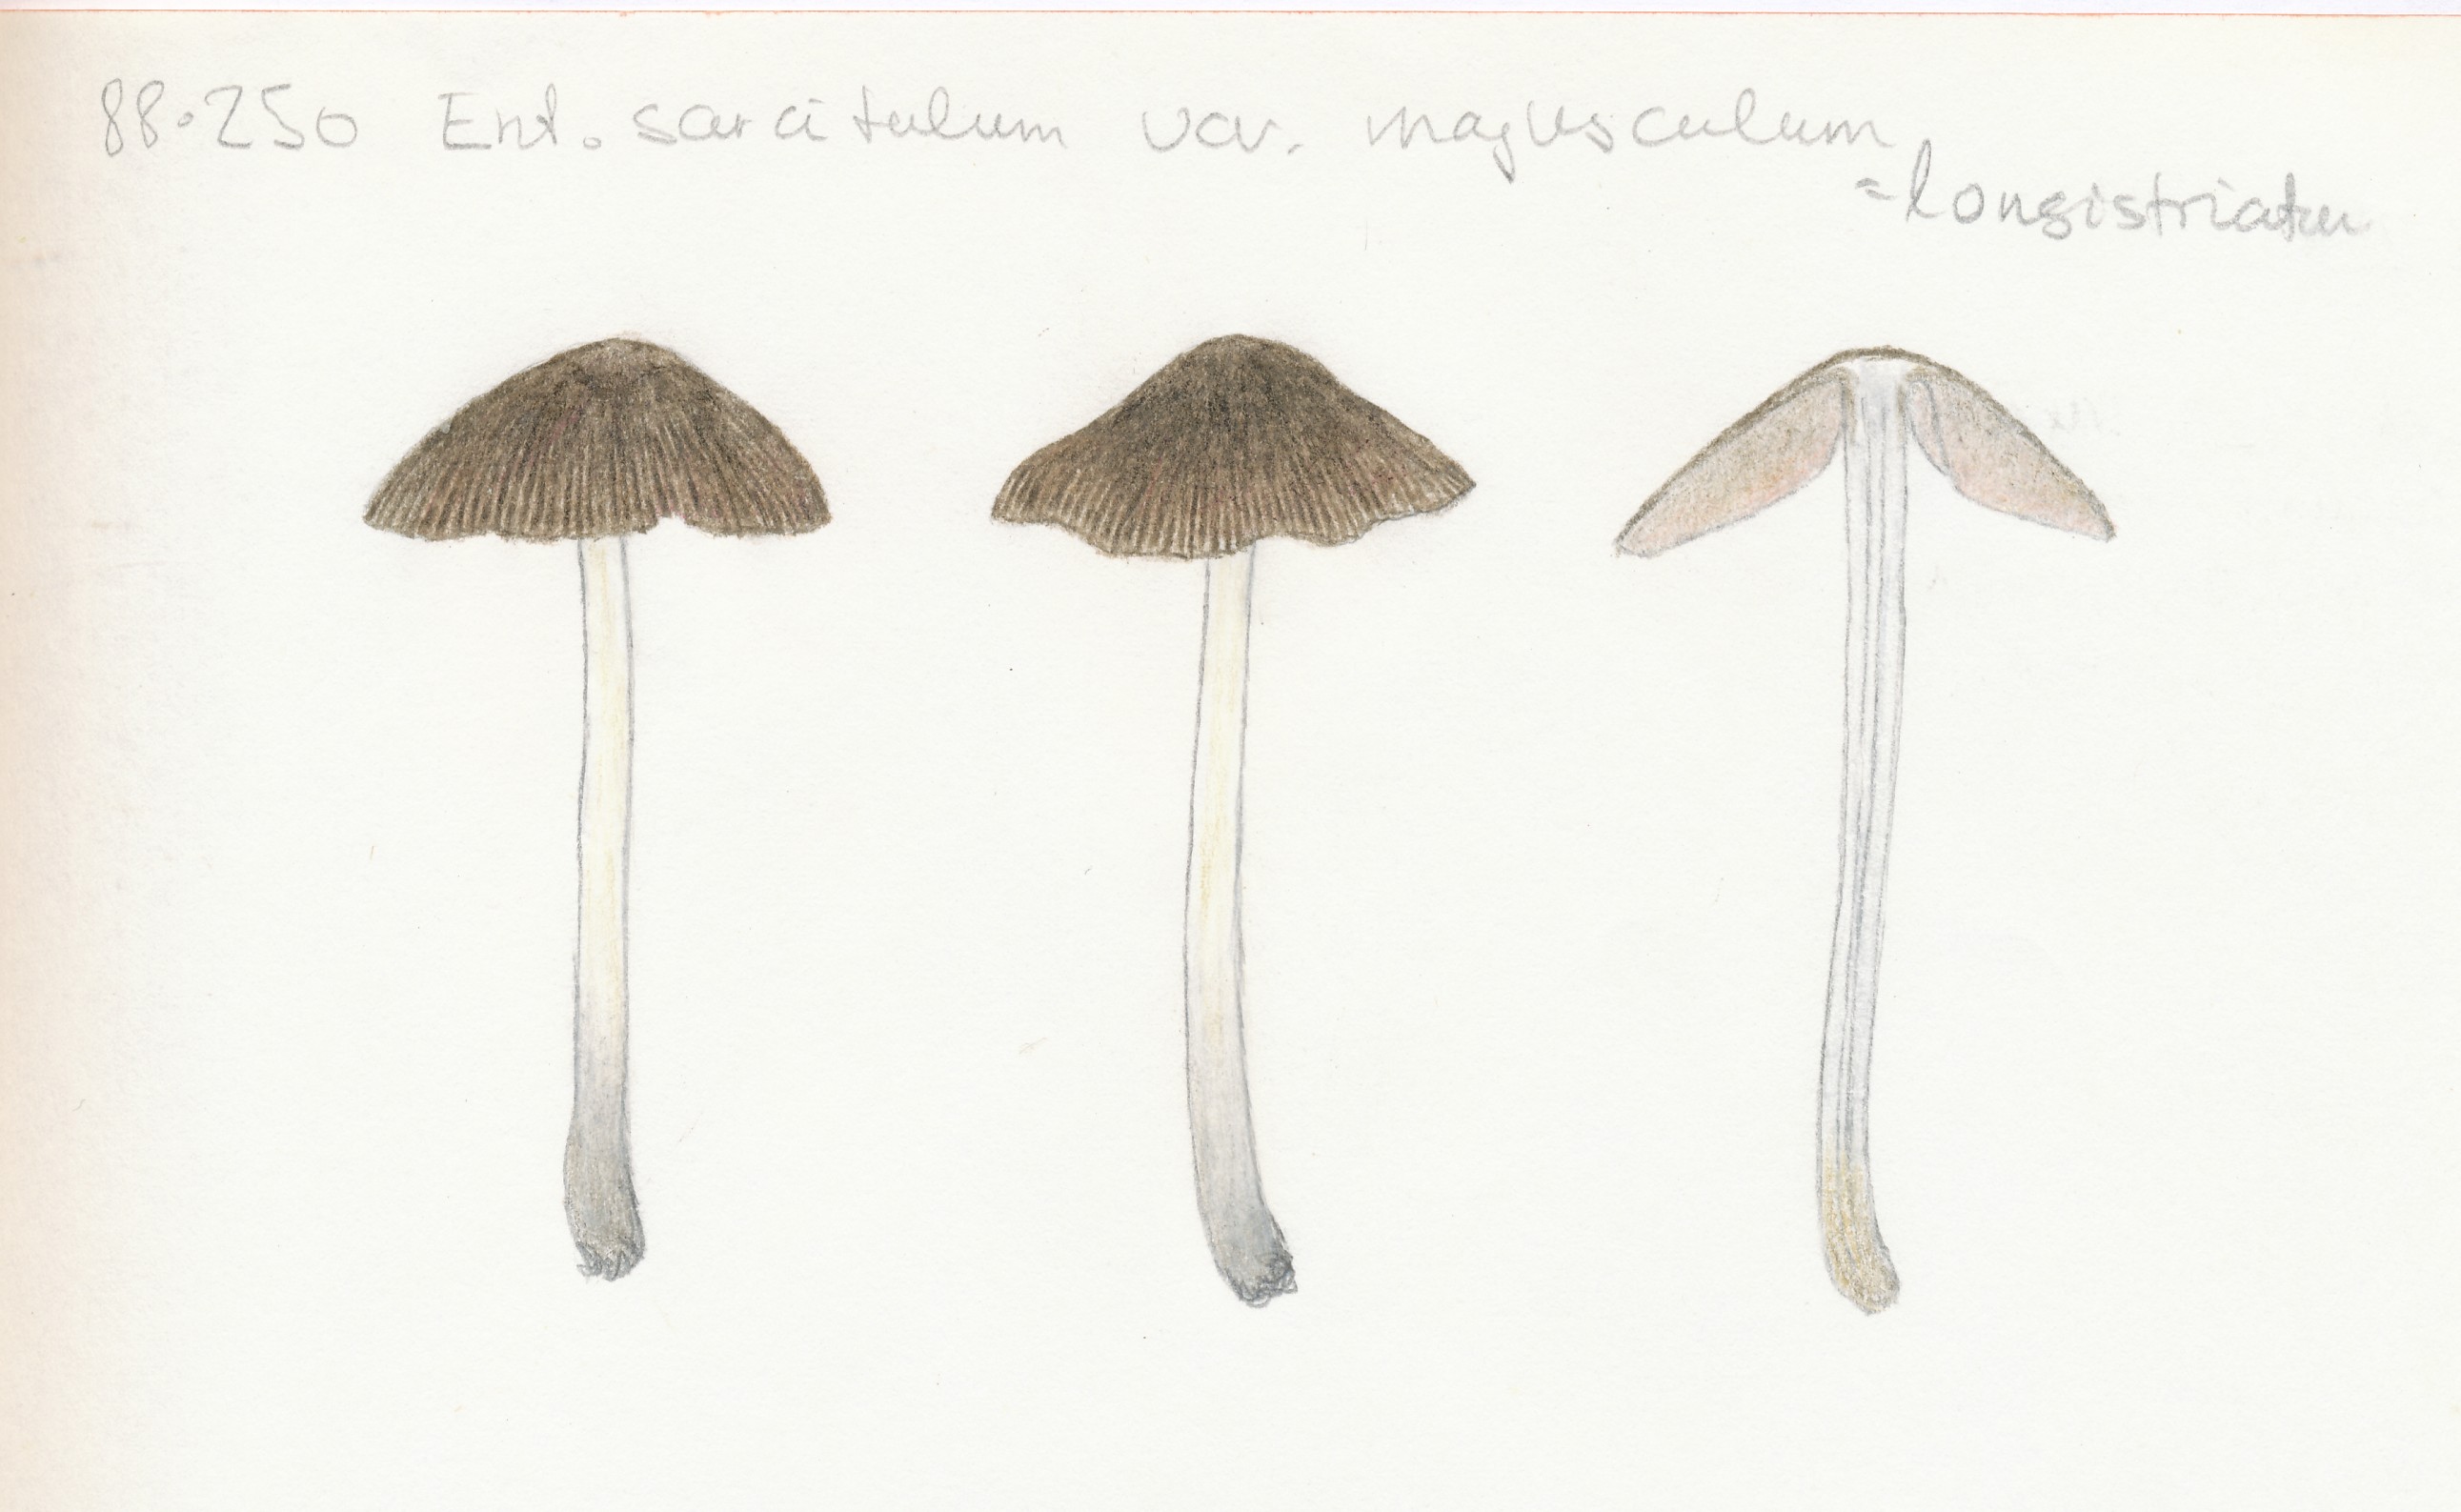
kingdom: Fungi
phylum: Basidiomycota
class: Agaricomycetes
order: Agaricales
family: Entolomataceae
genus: Entoloma
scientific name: Entoloma longistriatum
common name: gråfodet rødblad
